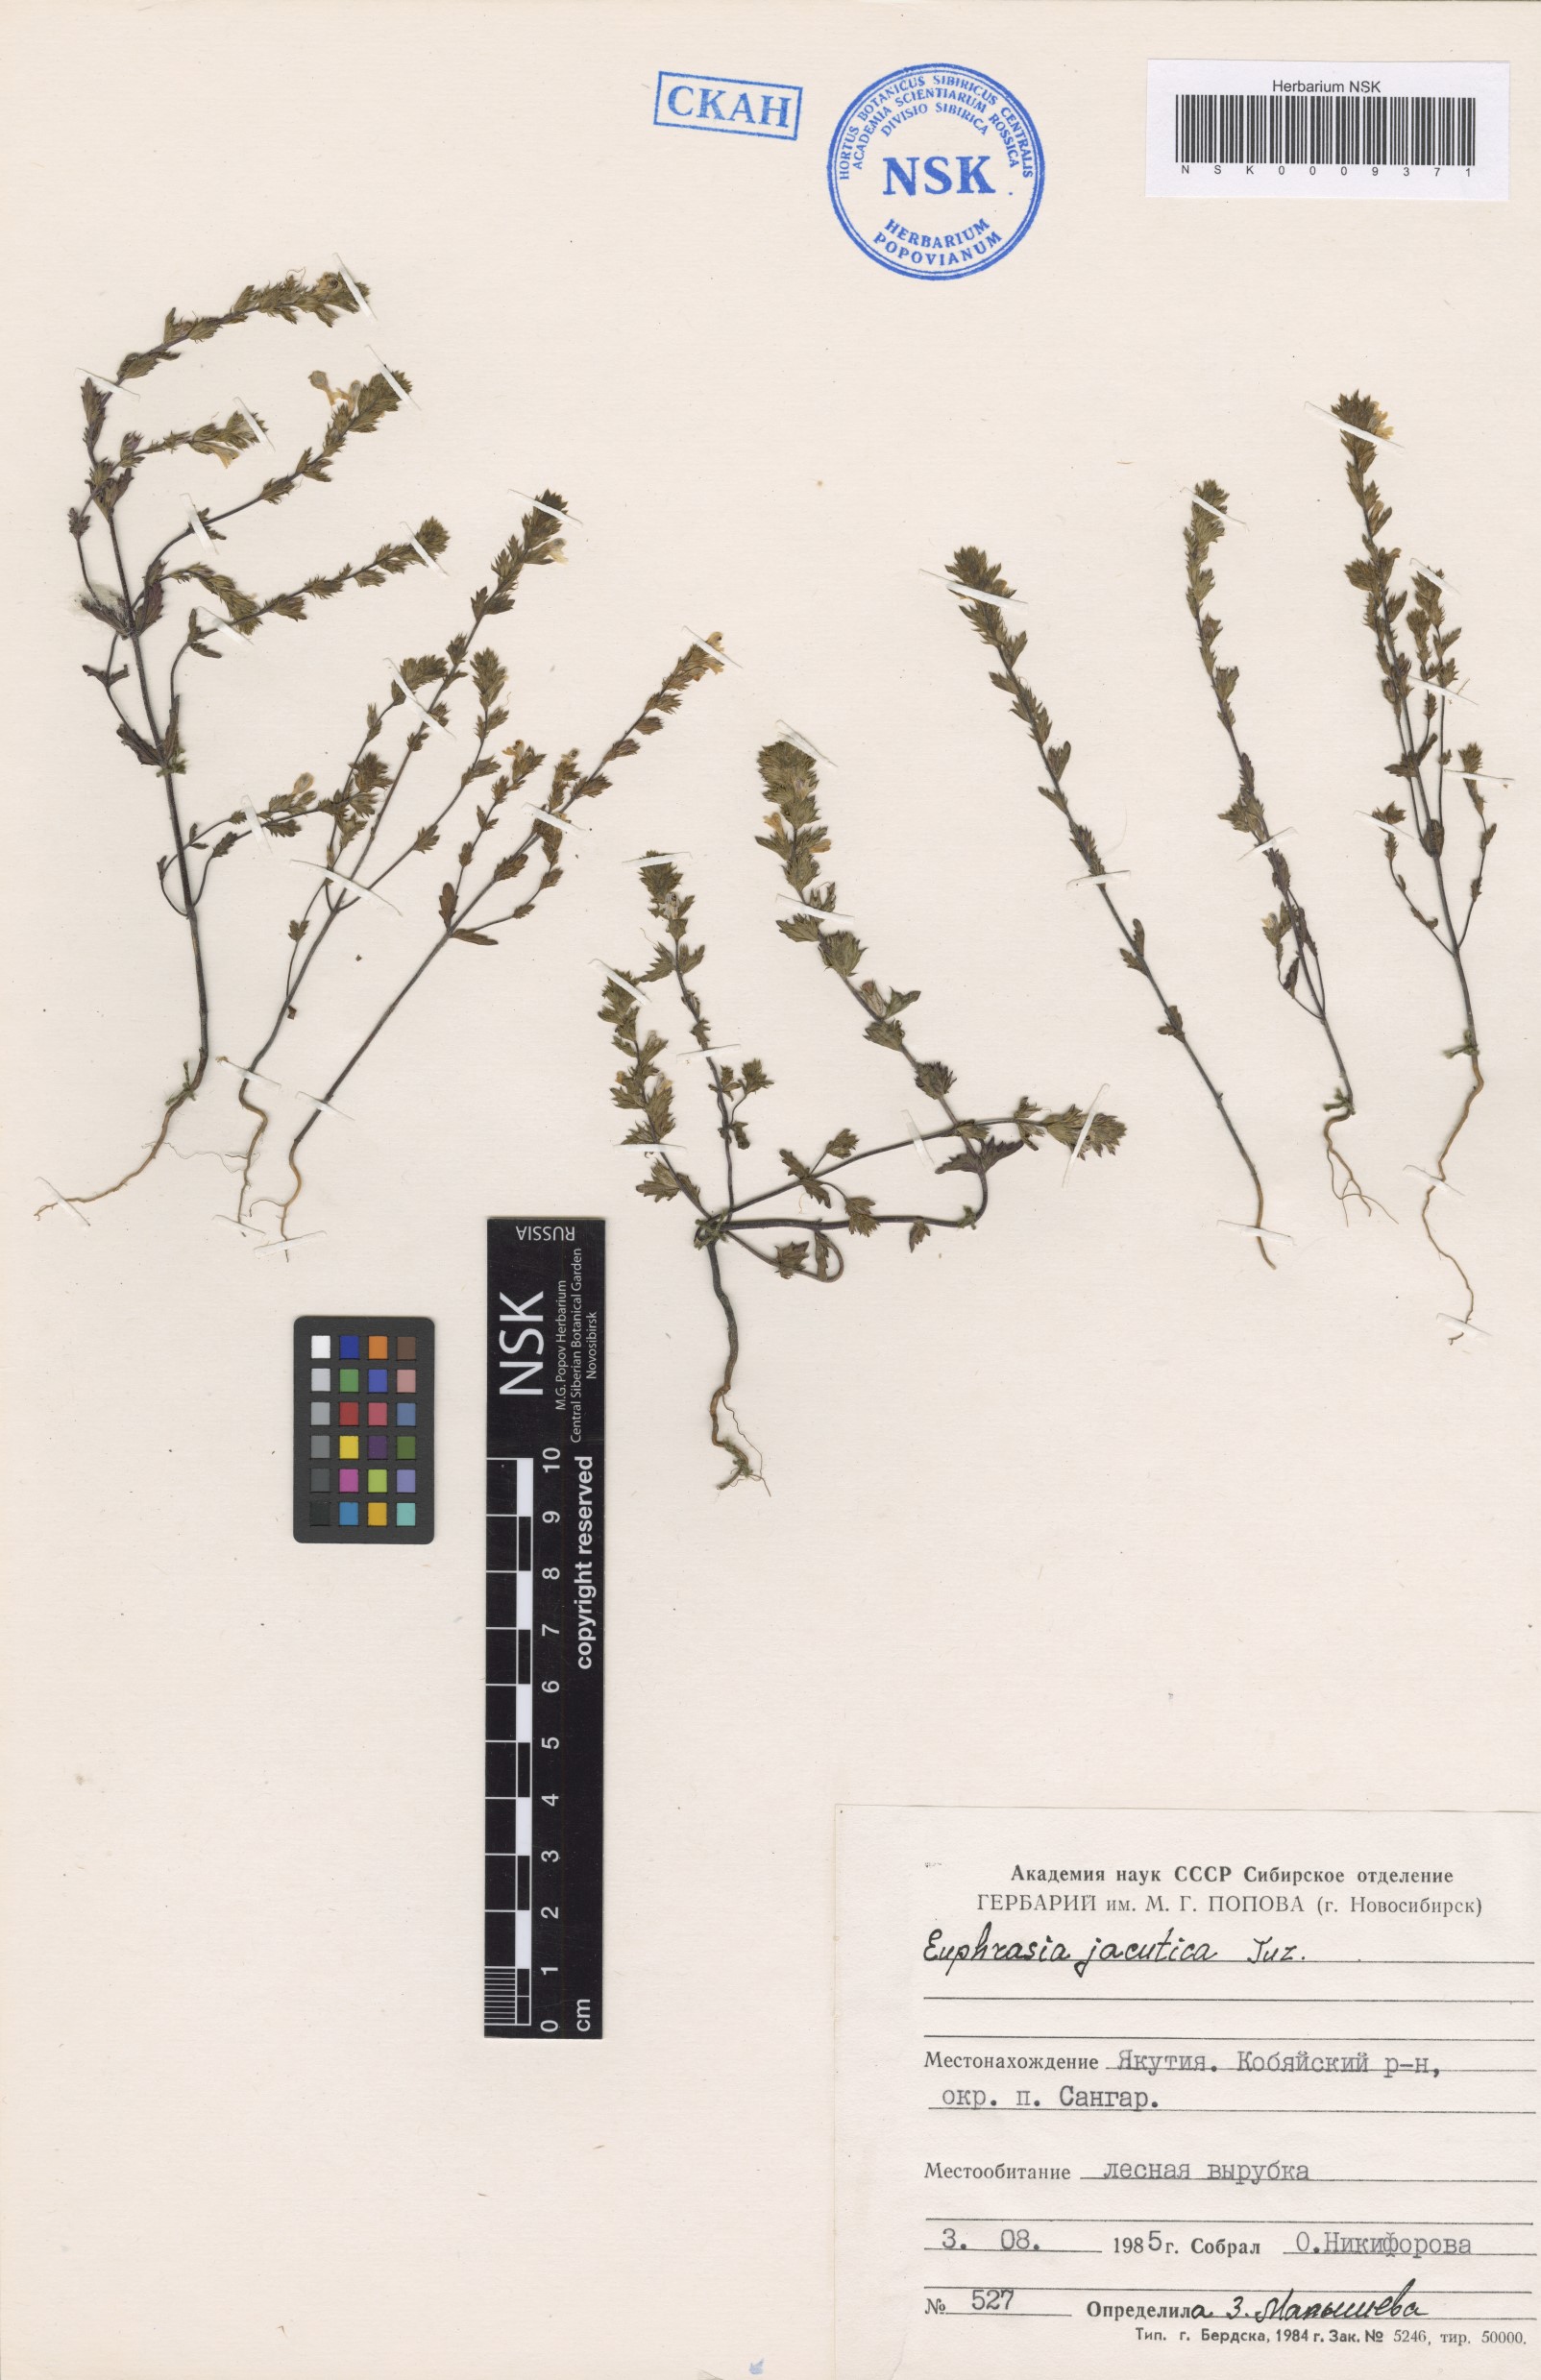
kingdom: Plantae
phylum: Tracheophyta
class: Magnoliopsida
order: Lamiales
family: Orobanchaceae
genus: Euphrasia
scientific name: Euphrasia jacutica
